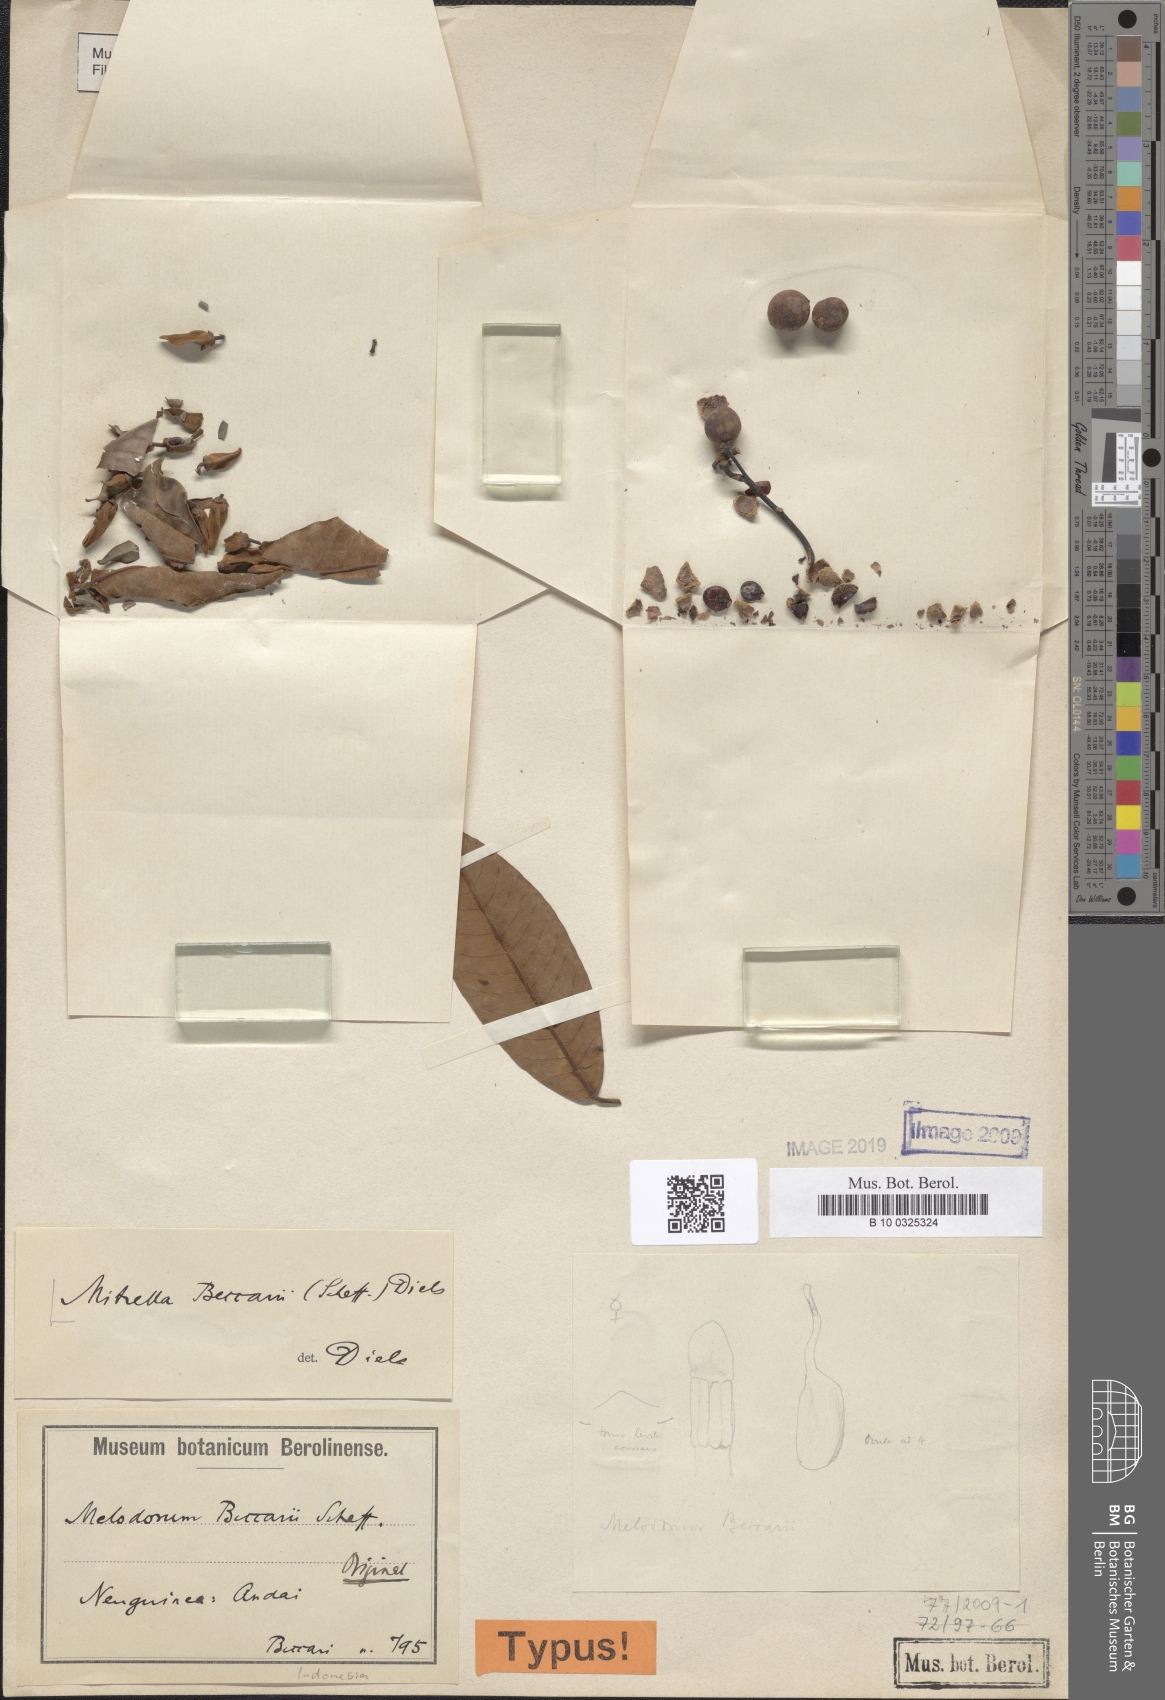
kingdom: Plantae
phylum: Tracheophyta
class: Magnoliopsida
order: Magnoliales
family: Annonaceae
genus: Mitrella
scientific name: Mitrella beccarii
